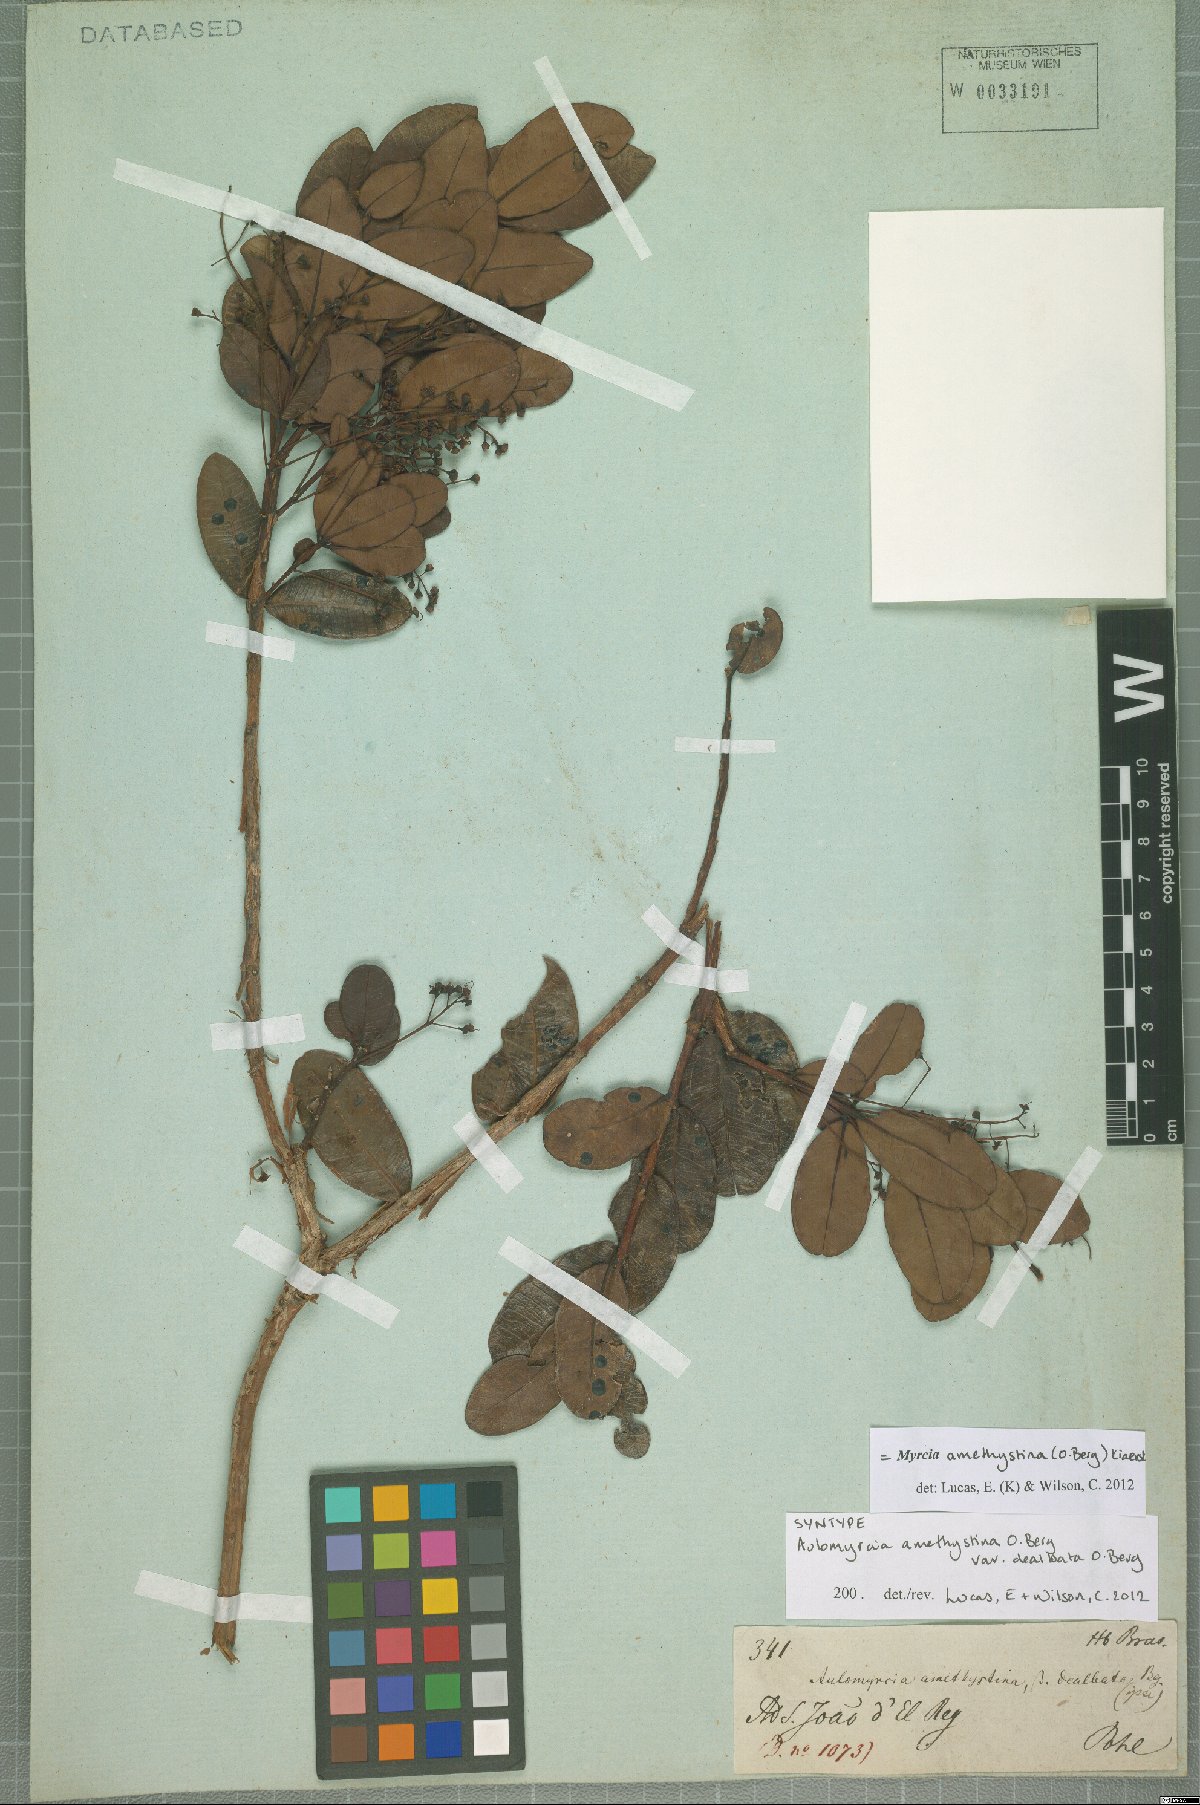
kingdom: Plantae
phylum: Tracheophyta
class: Magnoliopsida
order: Myrtales
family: Myrtaceae
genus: Myrcia
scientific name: Myrcia amethystina
